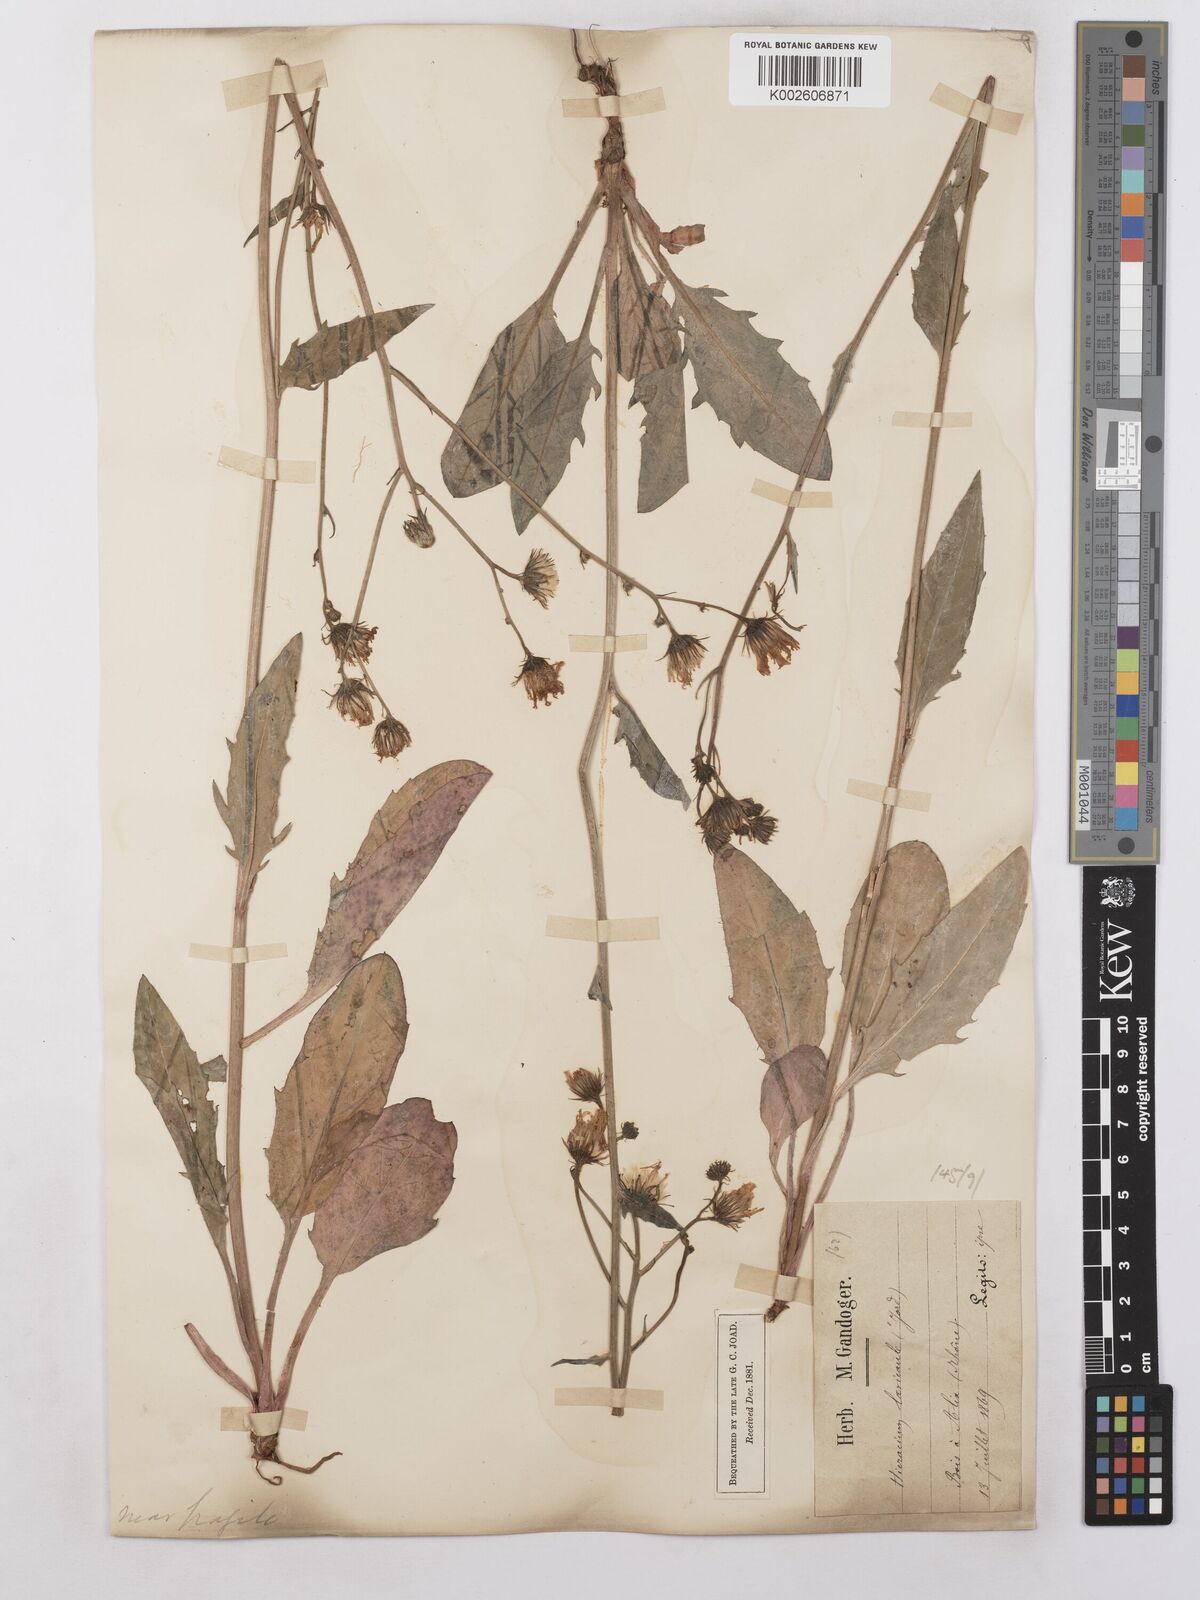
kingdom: Plantae
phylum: Tracheophyta
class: Magnoliopsida
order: Asterales
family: Asteraceae
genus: Hieracium
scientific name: Hieracium levicaule
